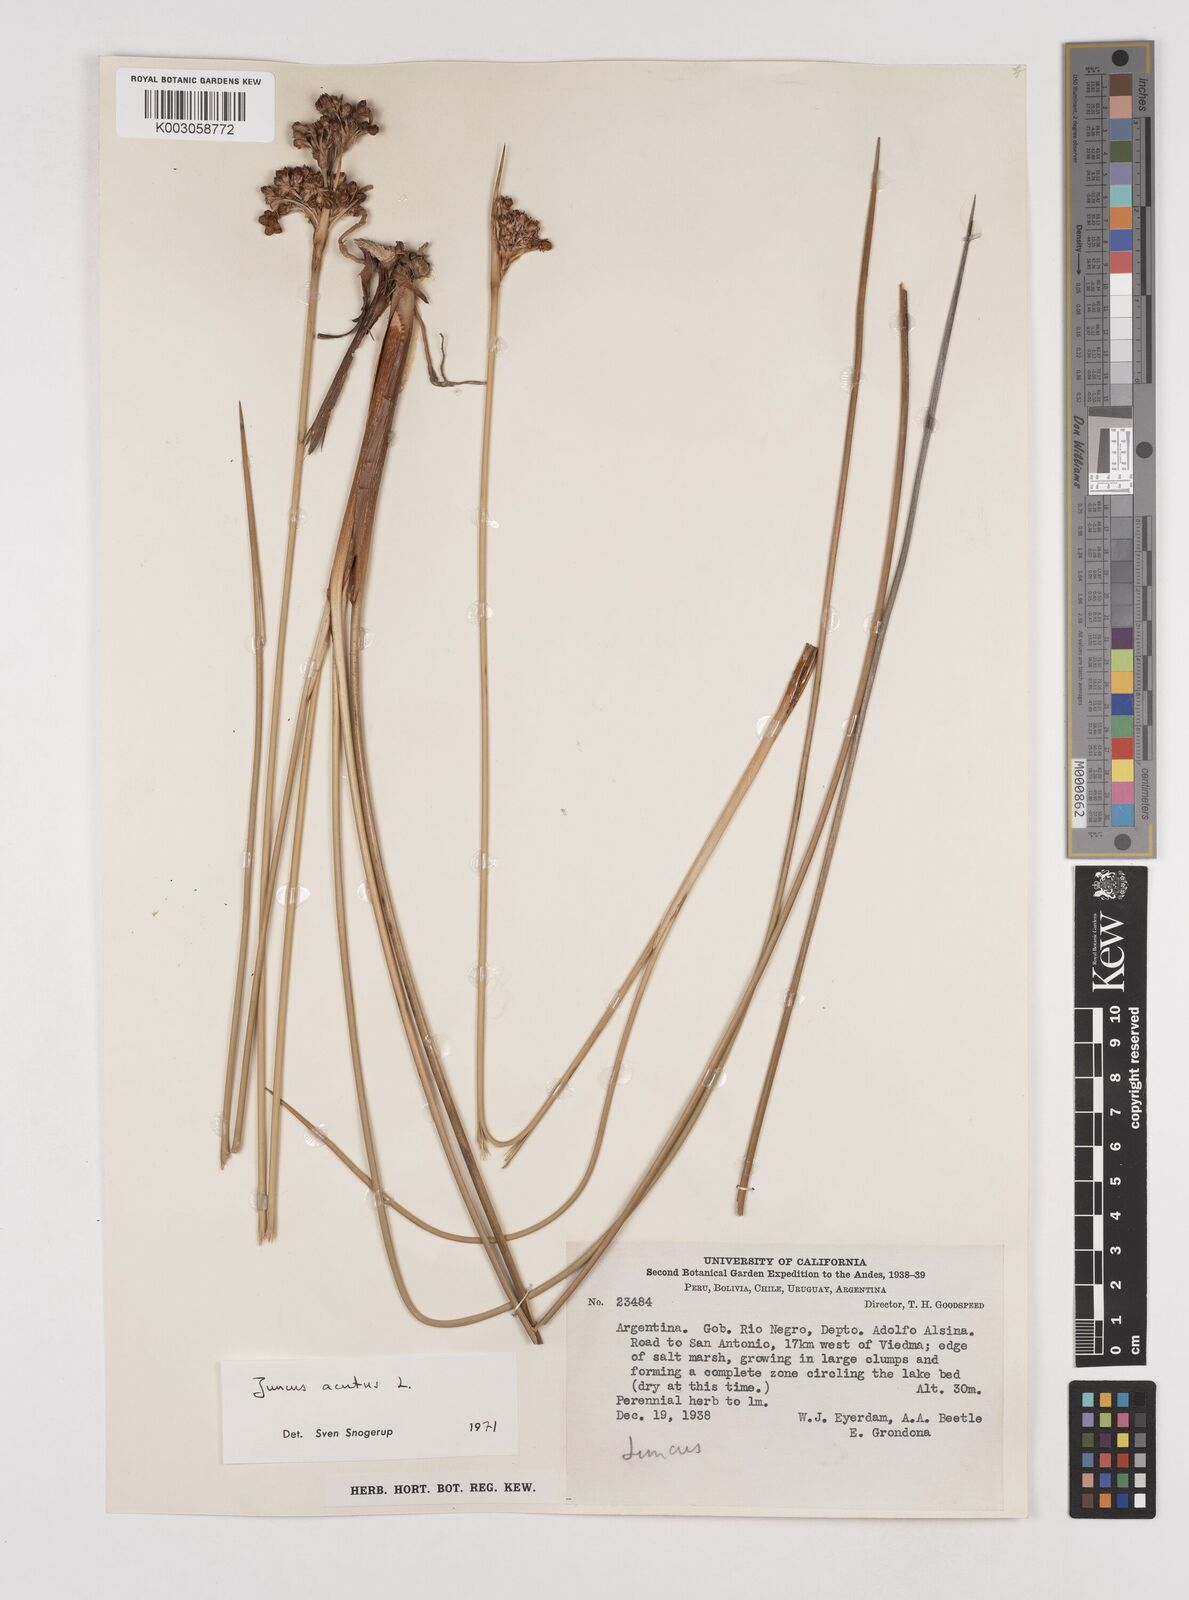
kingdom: Plantae
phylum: Tracheophyta
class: Liliopsida
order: Poales
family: Juncaceae
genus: Juncus
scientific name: Juncus acutus
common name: Sharp rush
